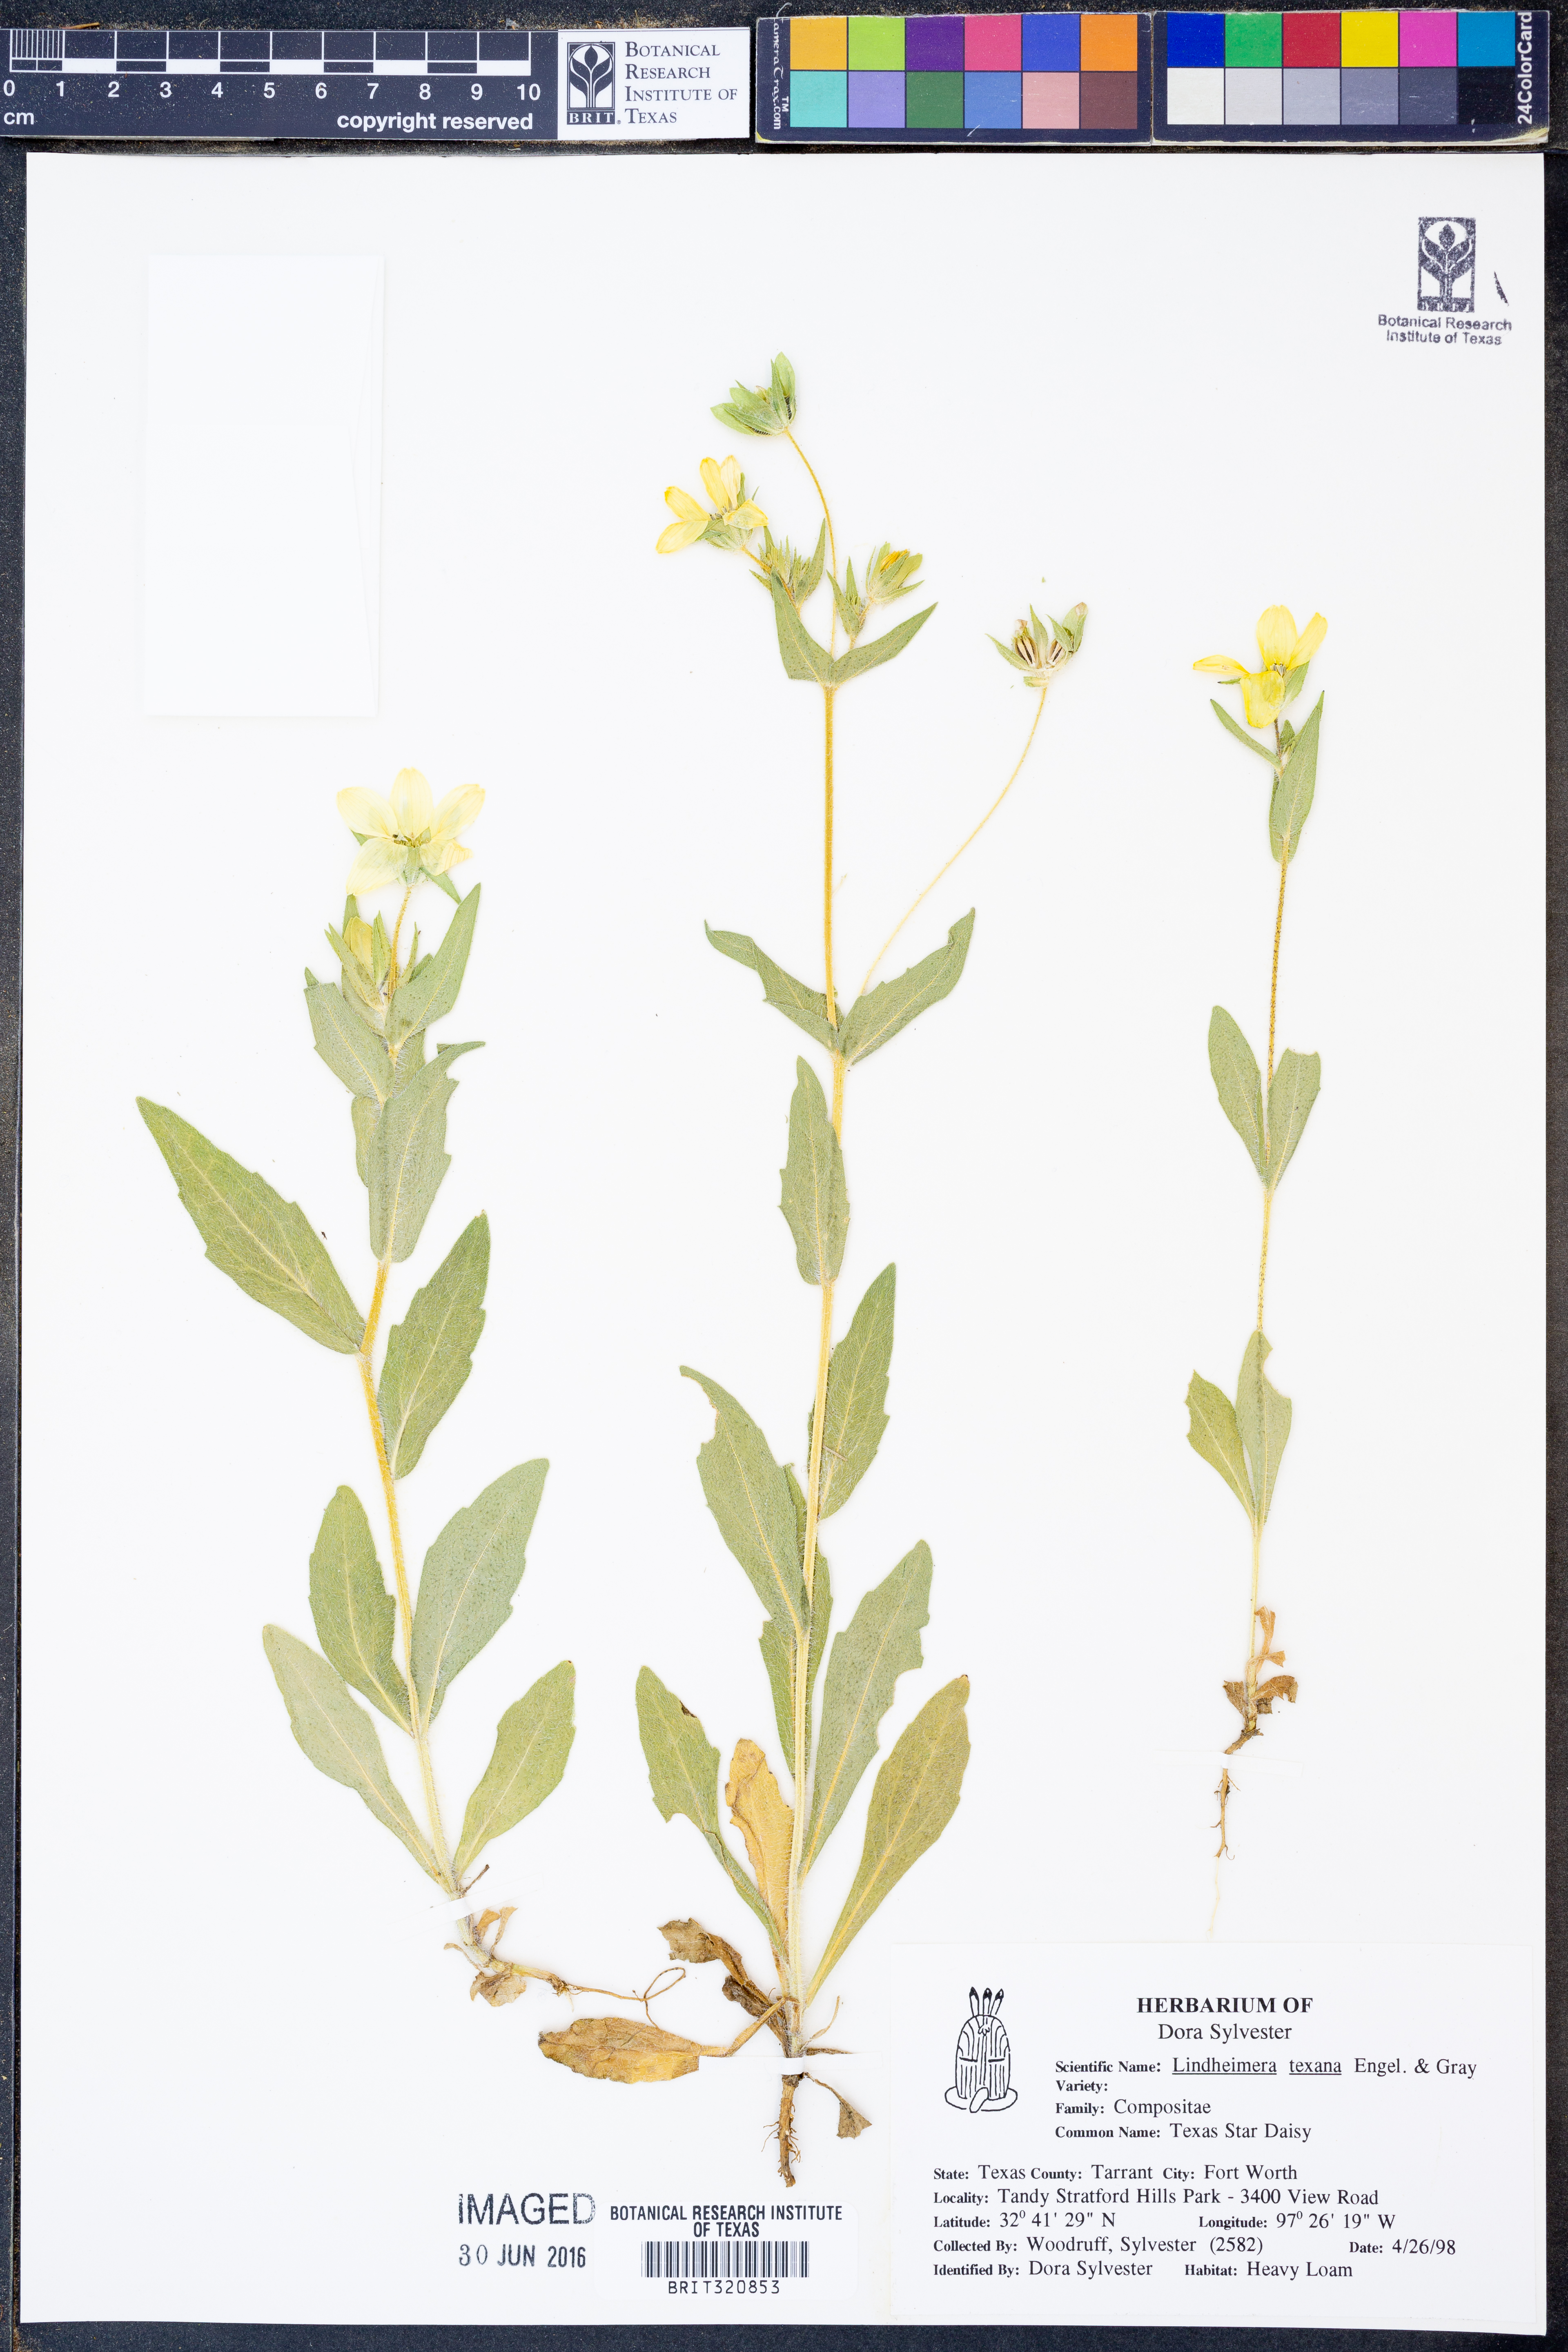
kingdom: Plantae
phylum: Tracheophyta
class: Magnoliopsida
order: Asterales
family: Asteraceae
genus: Lindheimera
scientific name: Lindheimera texana
